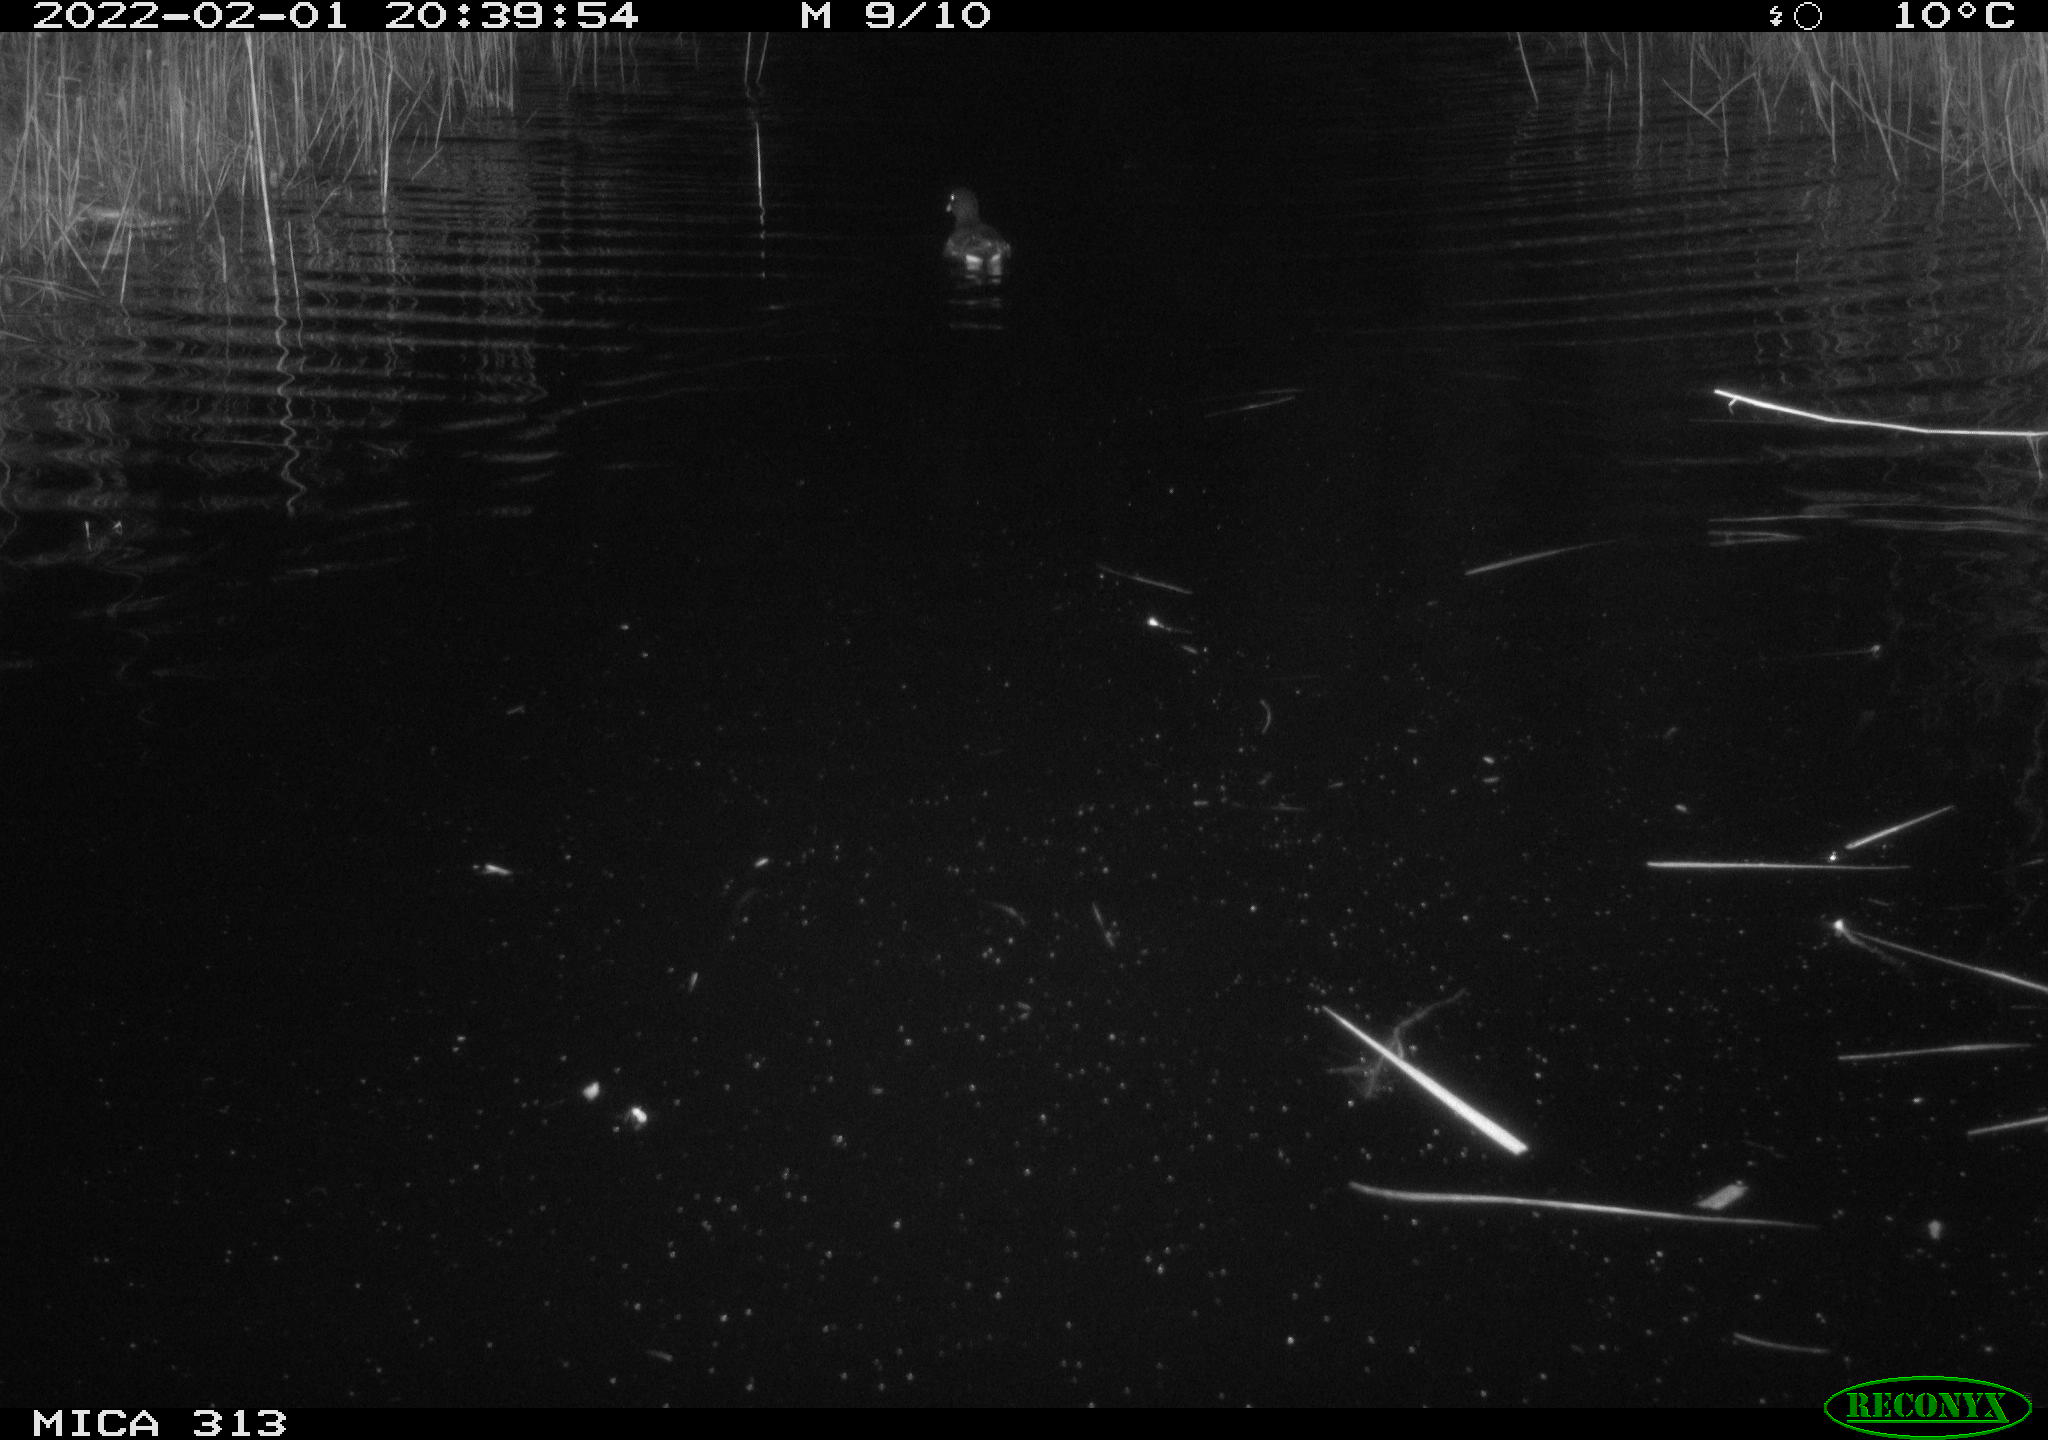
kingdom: Animalia
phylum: Chordata
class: Aves
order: Gruiformes
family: Rallidae
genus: Gallinula
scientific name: Gallinula chloropus
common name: Common moorhen
